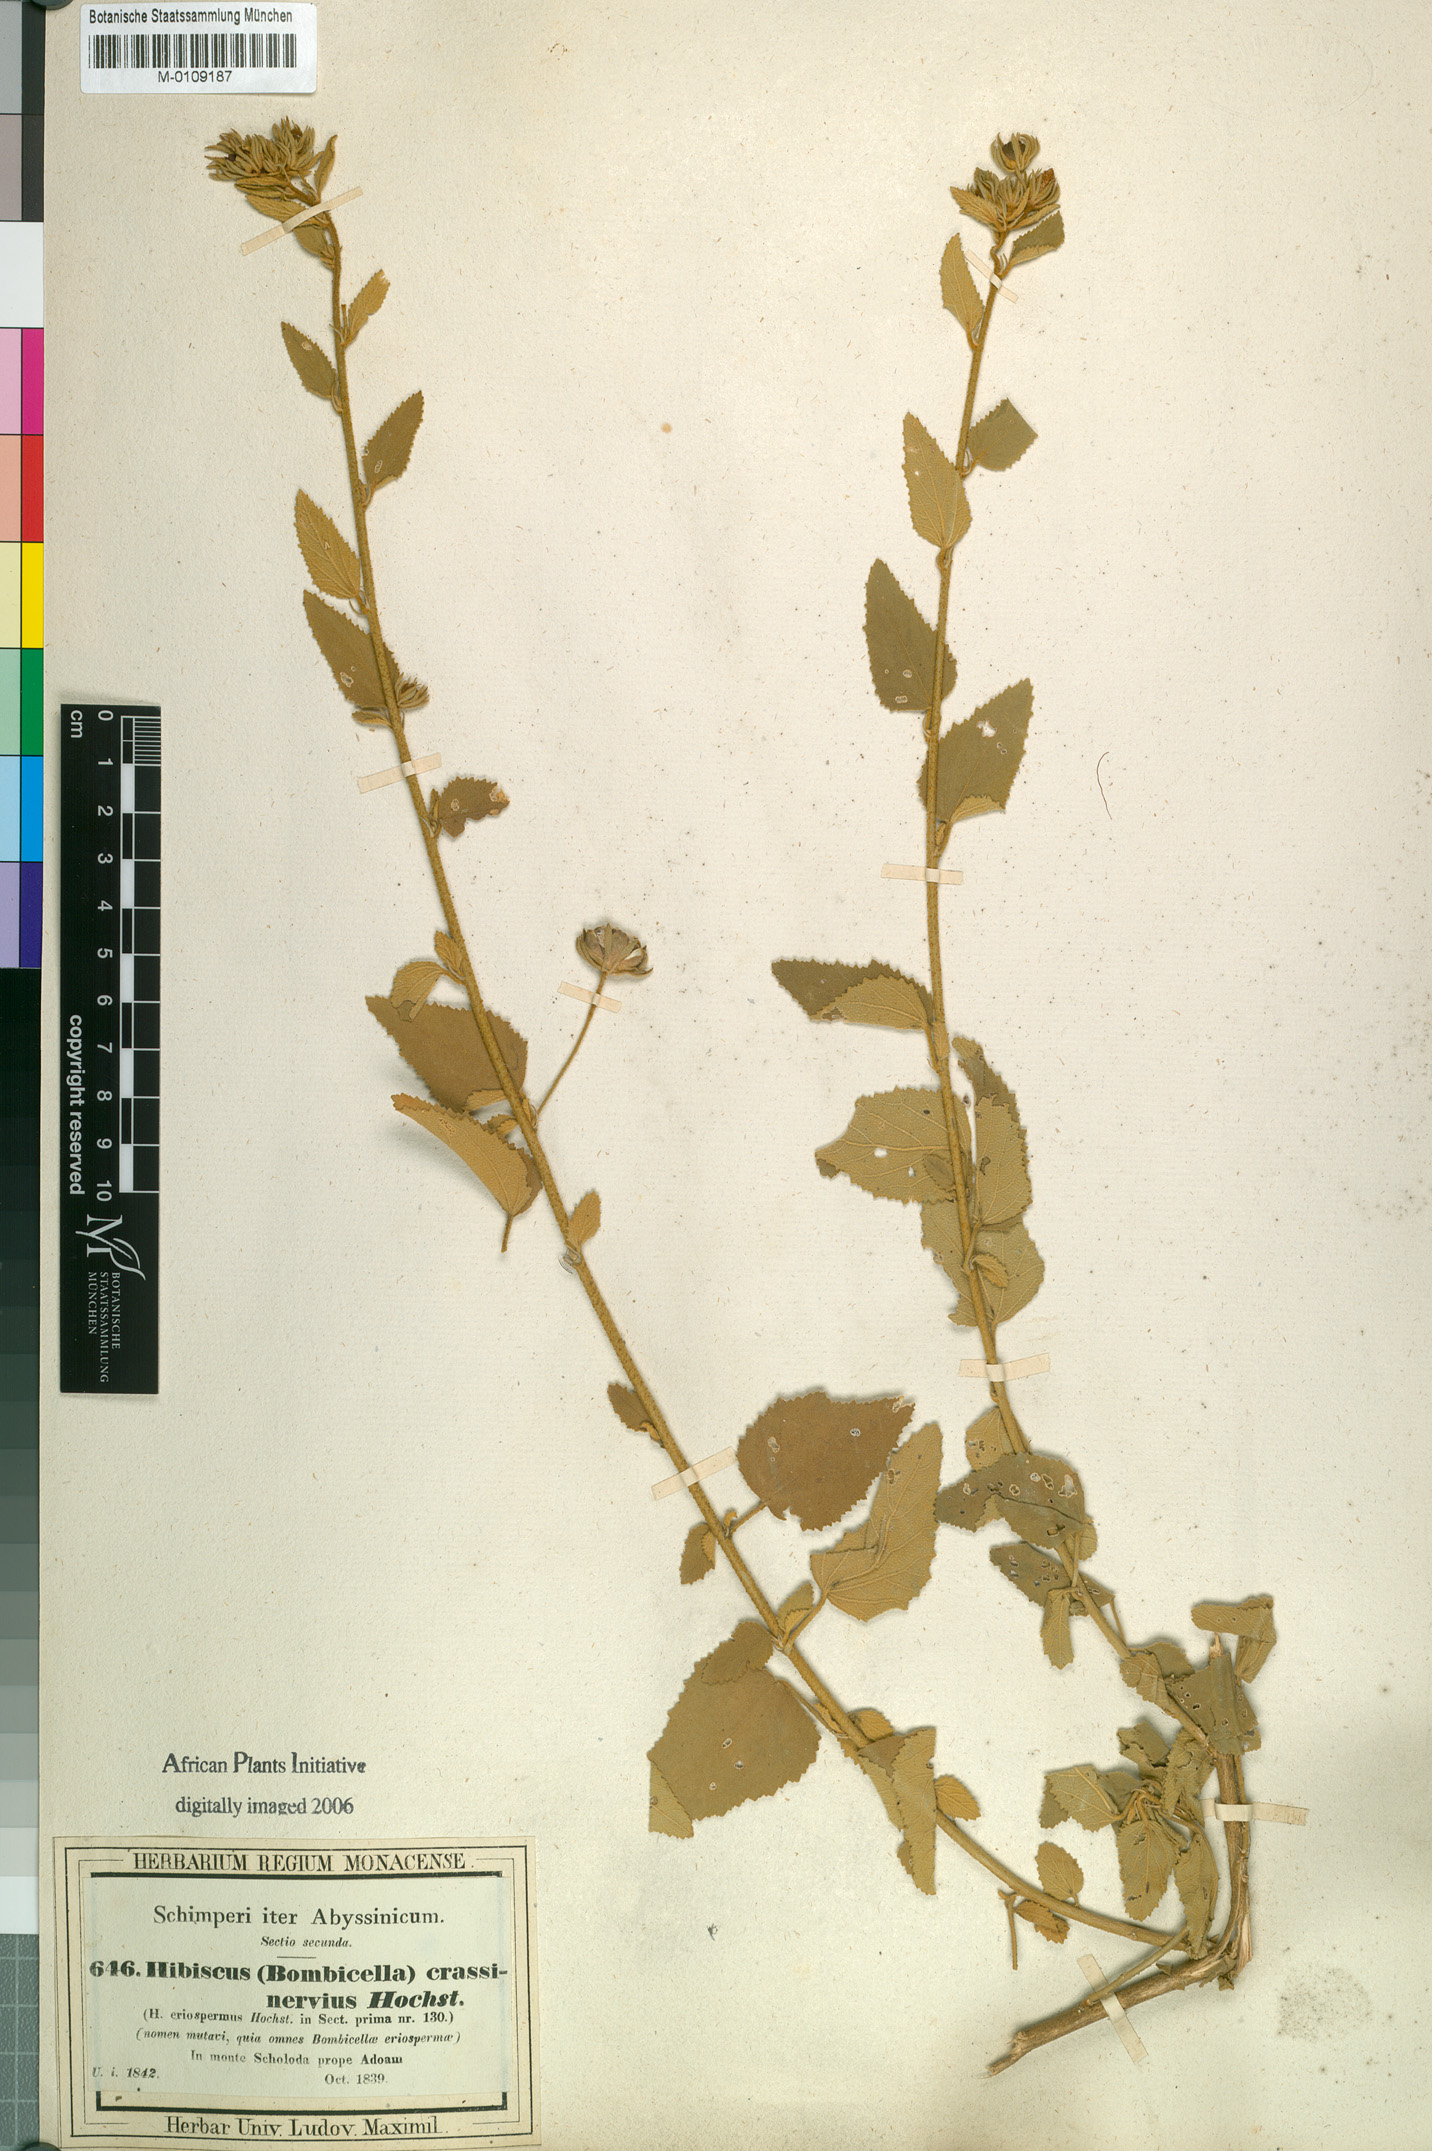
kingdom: Plantae
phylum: Tracheophyta
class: Magnoliopsida
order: Malvales
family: Malvaceae
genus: Hibiscus
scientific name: Hibiscus crassinervius
